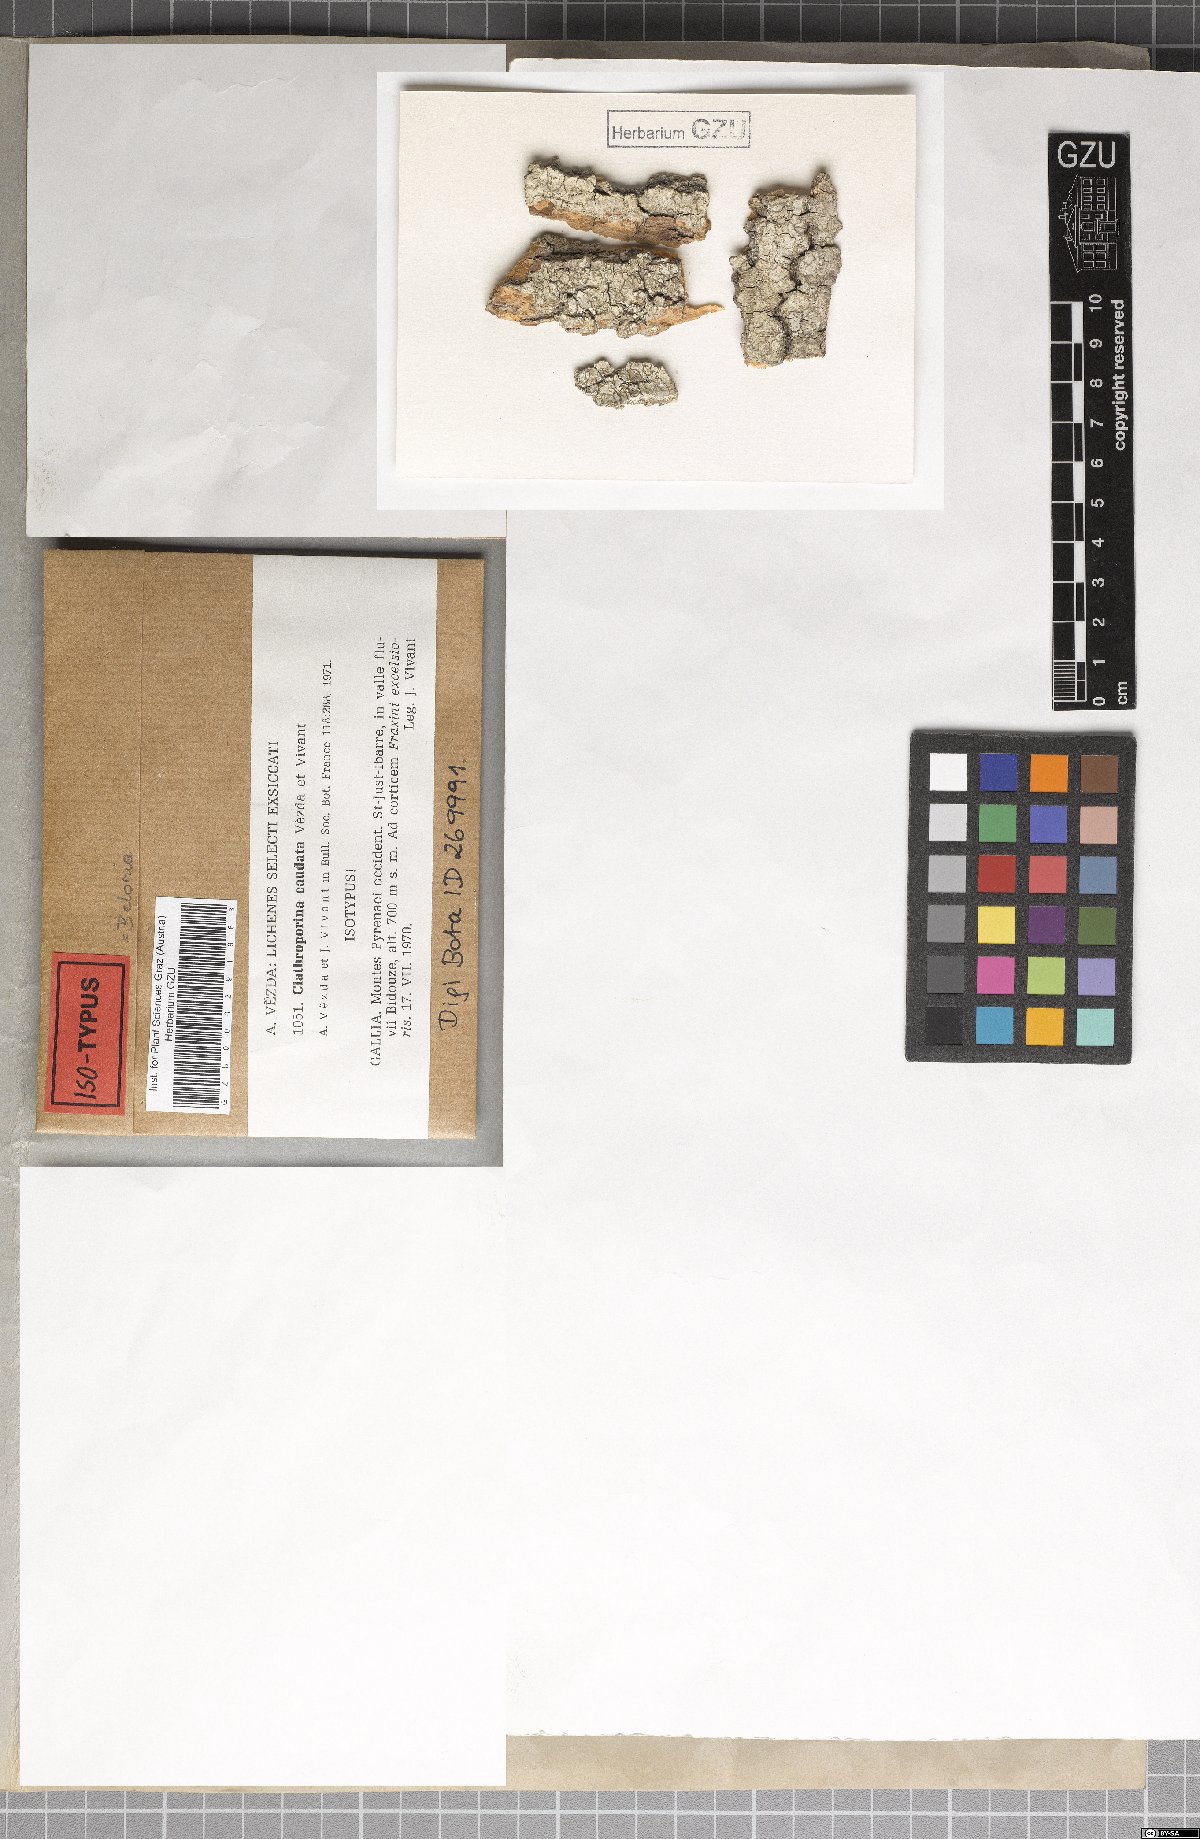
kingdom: Fungi
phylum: Ascomycota
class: Lecanoromycetes
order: Ostropales
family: Porinaceae
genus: Clathroporina
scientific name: Clathroporina caudata
